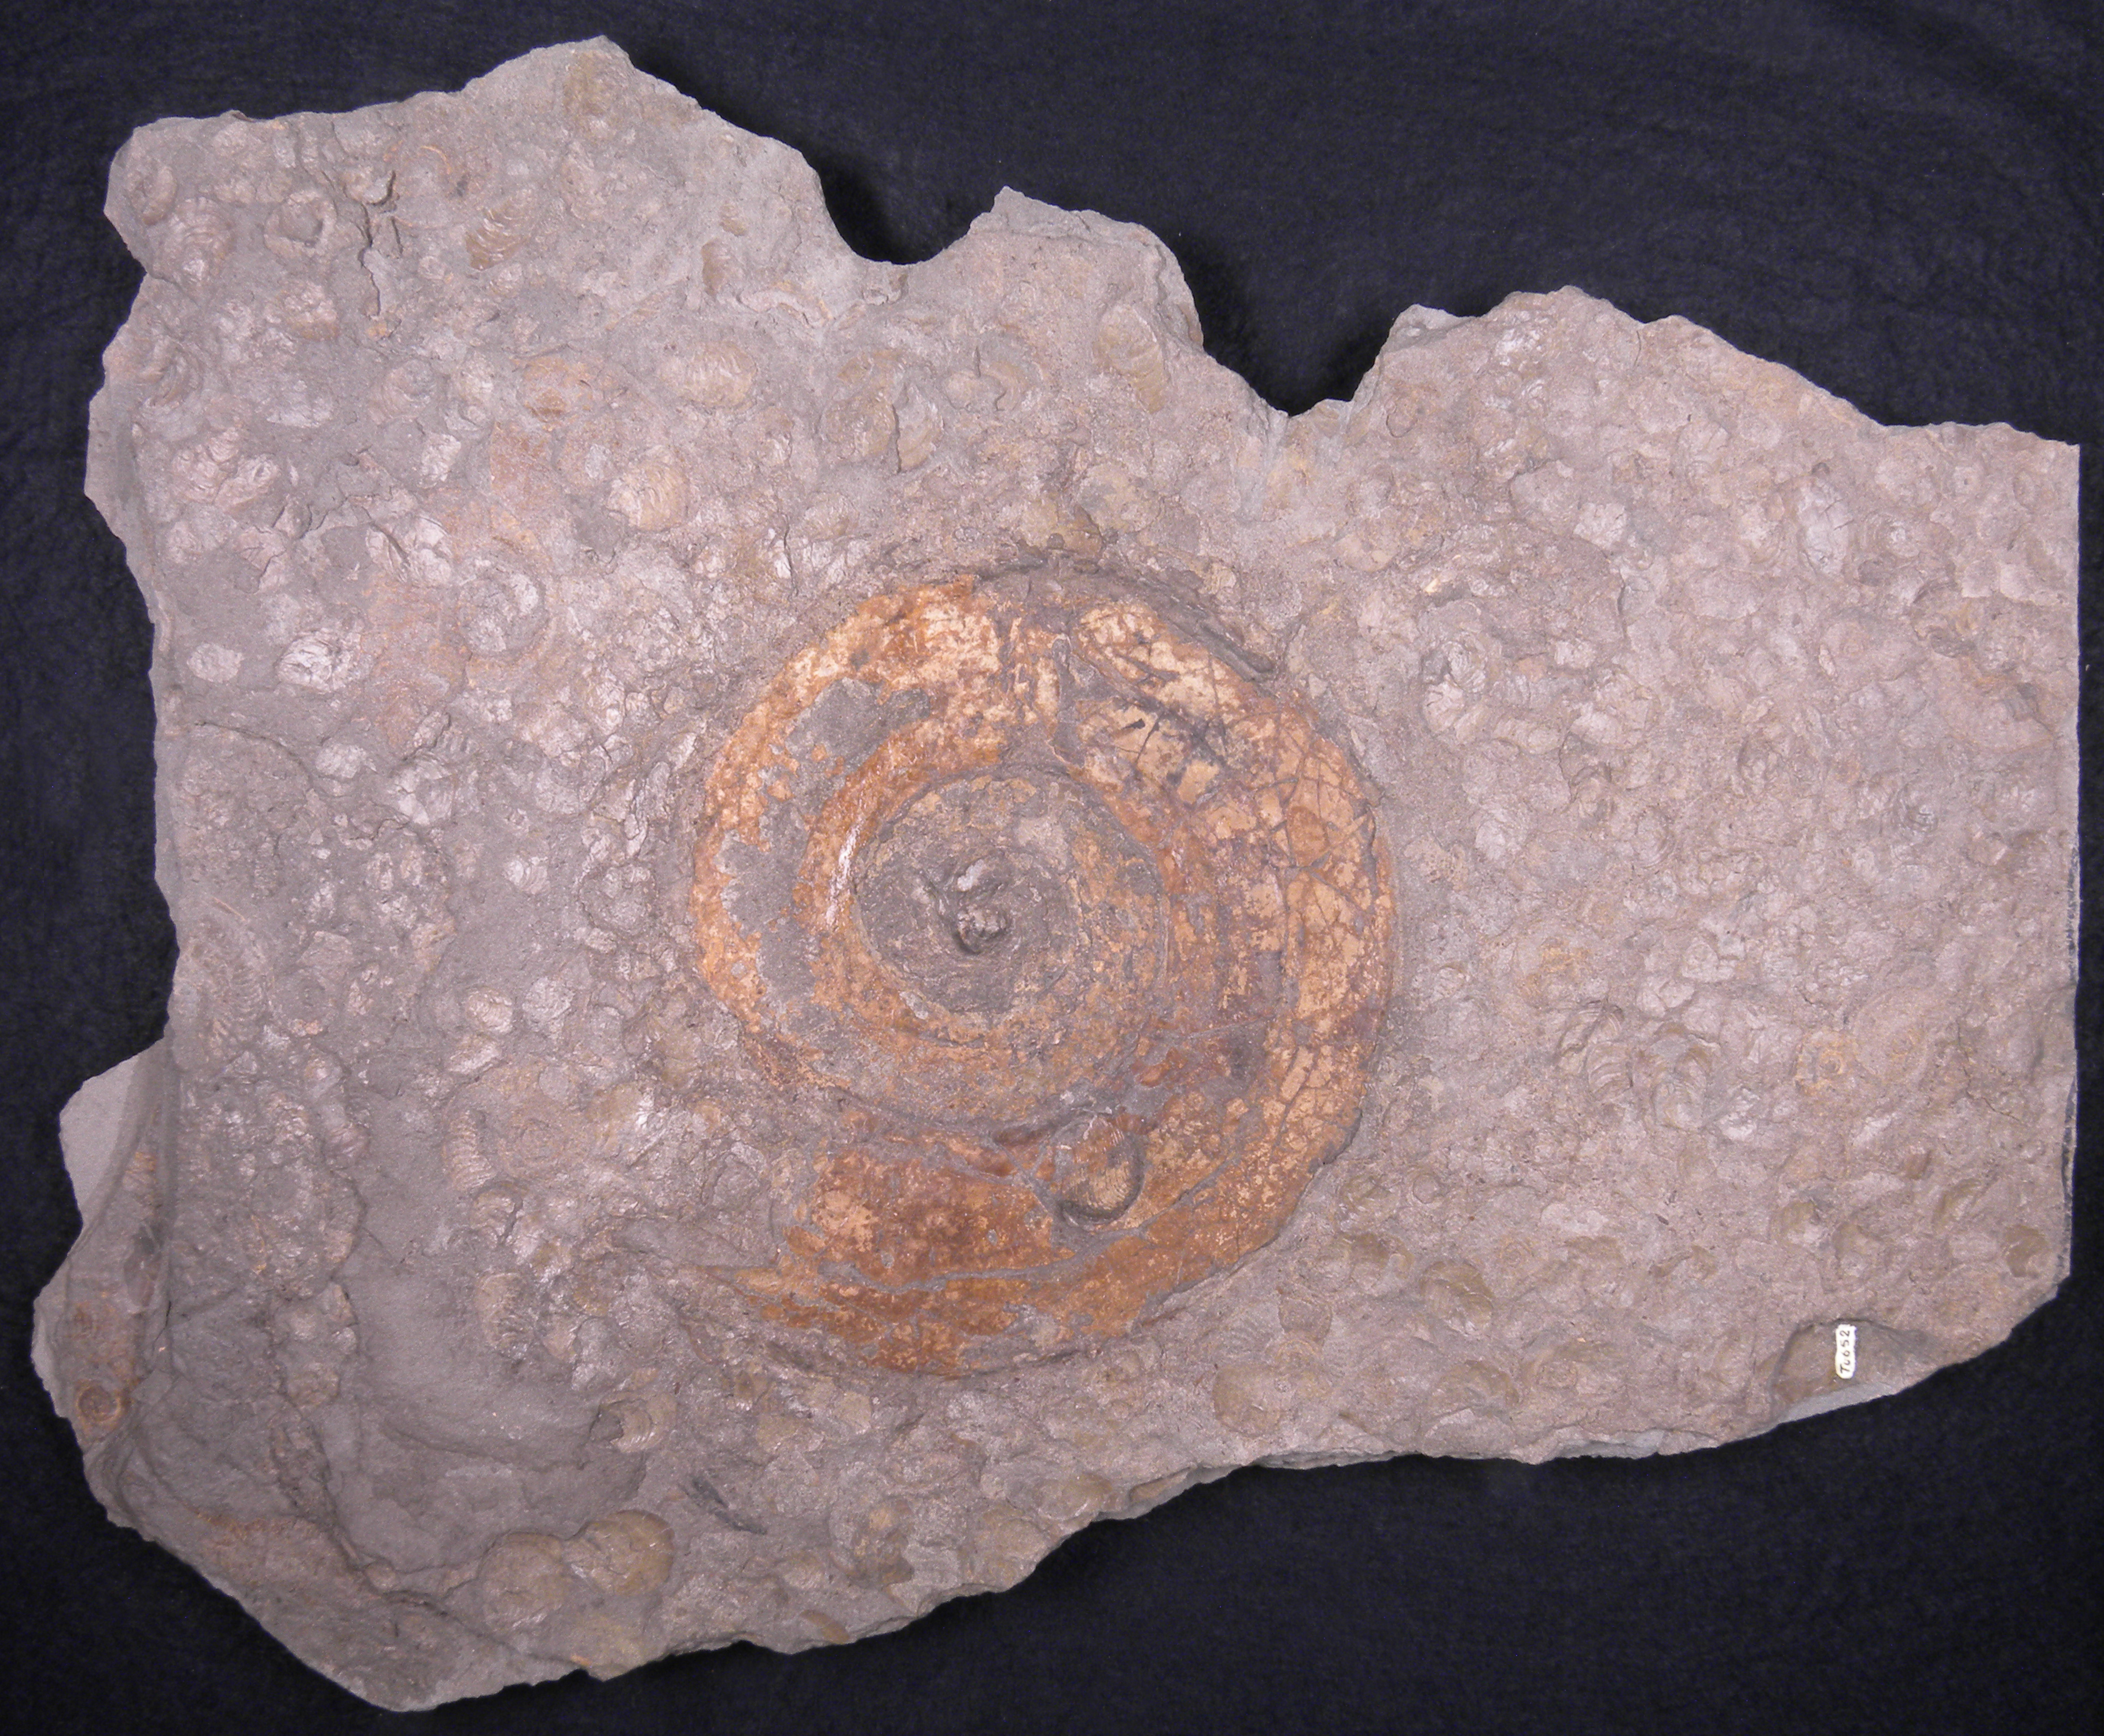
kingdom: Animalia
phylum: Mollusca
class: Cephalopoda
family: Hildoceratidae
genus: Harpoceras
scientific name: Harpoceras serpentinum
